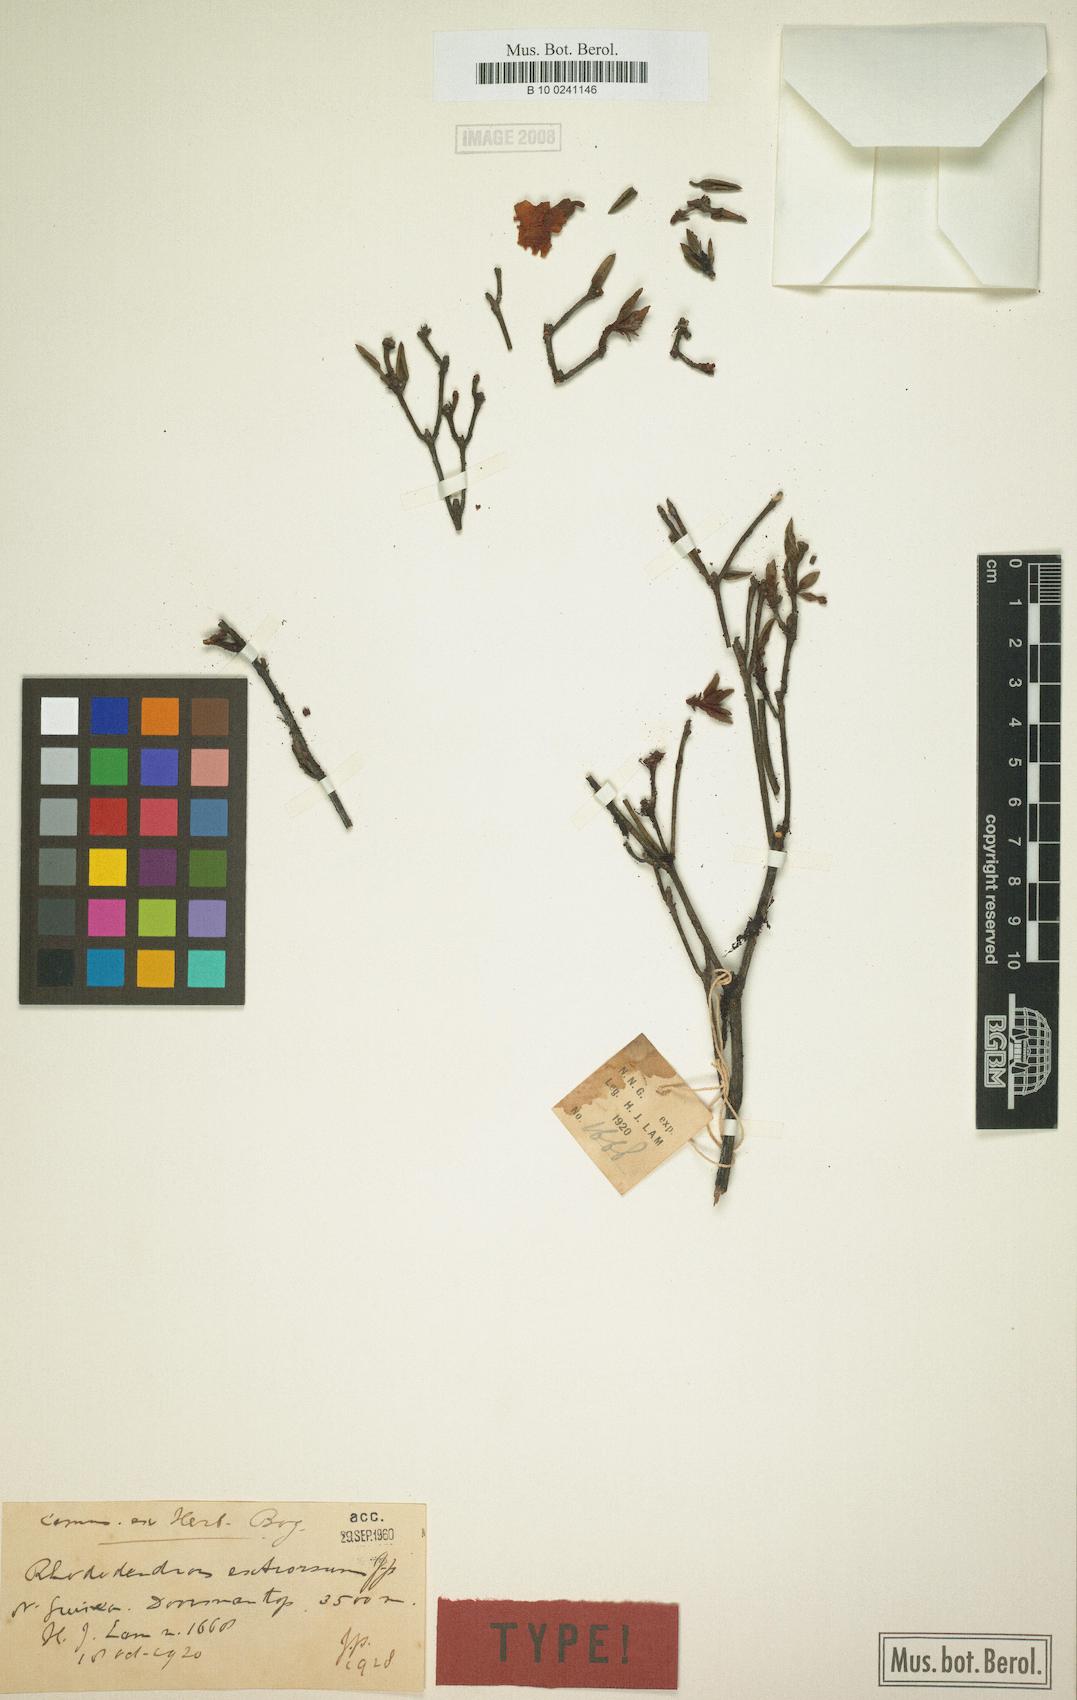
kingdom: Plantae
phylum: Tracheophyta
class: Magnoliopsida
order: Ericales
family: Ericaceae
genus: Rhododendron
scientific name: Rhododendron extrorsum
